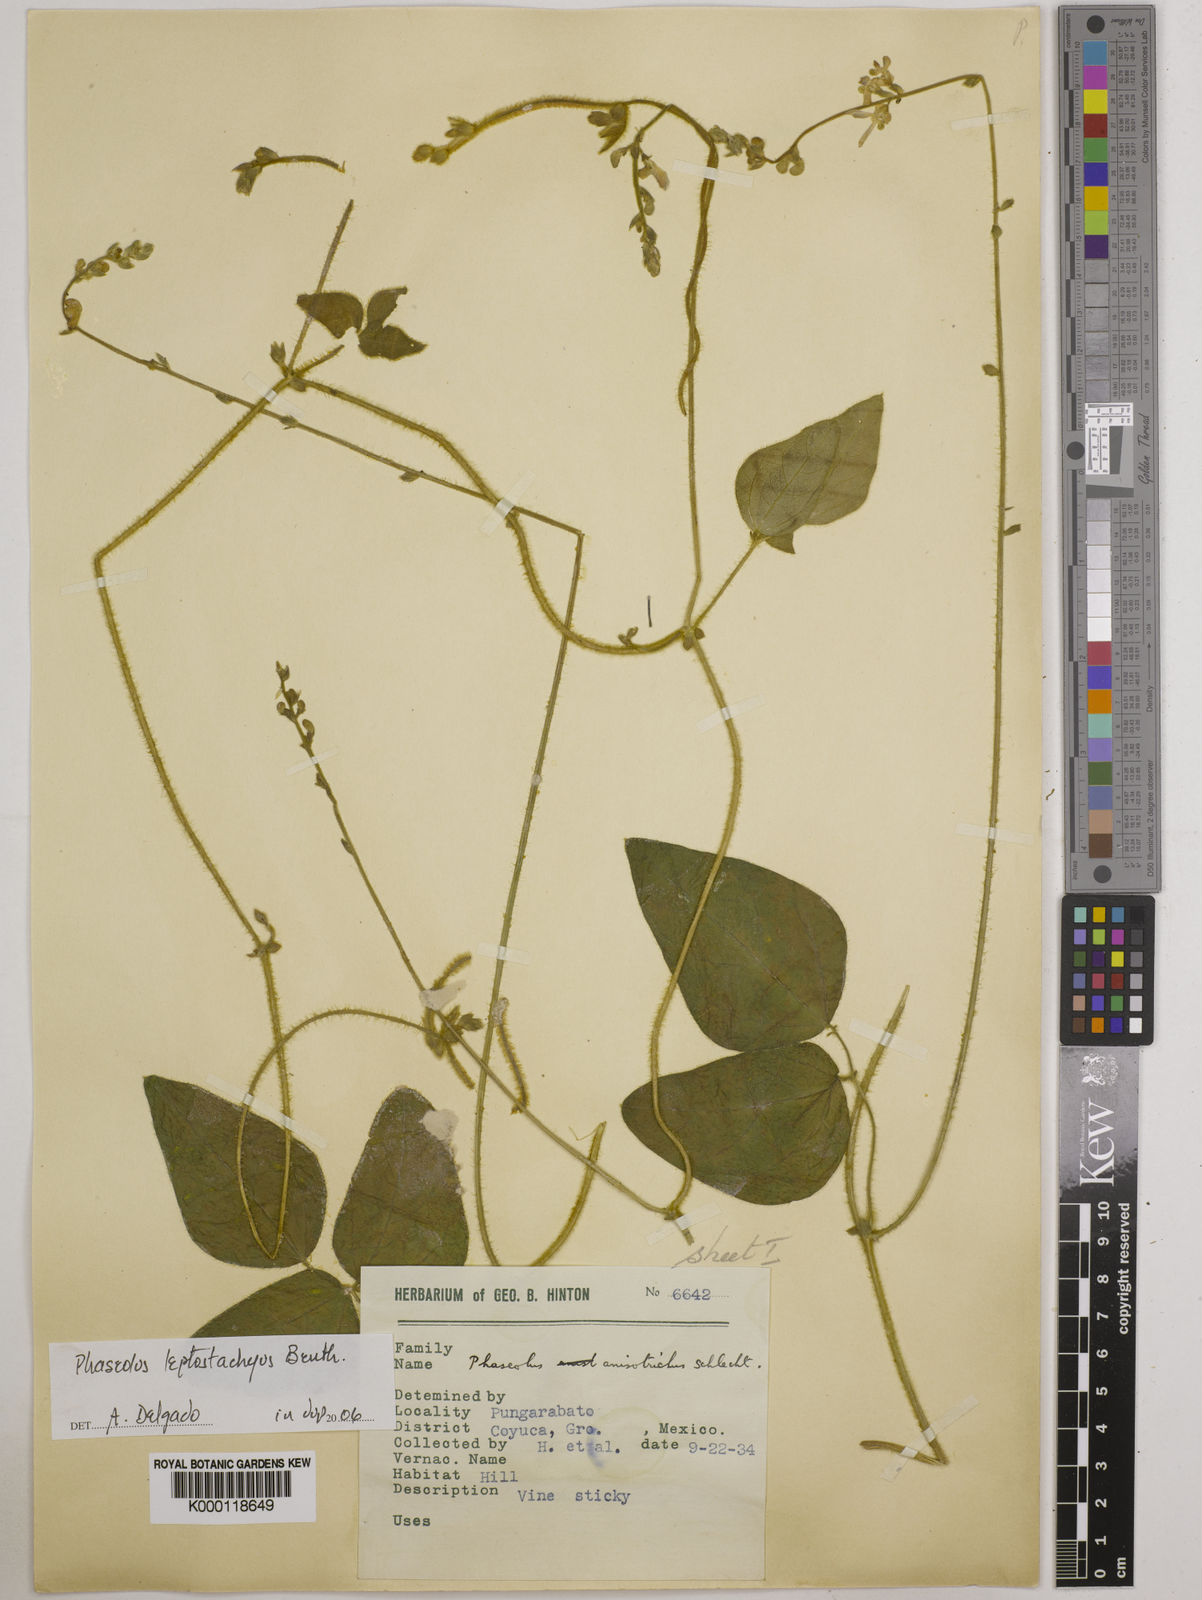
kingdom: Plantae
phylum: Tracheophyta
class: Magnoliopsida
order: Fabales
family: Fabaceae
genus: Phaseolus
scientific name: Phaseolus
